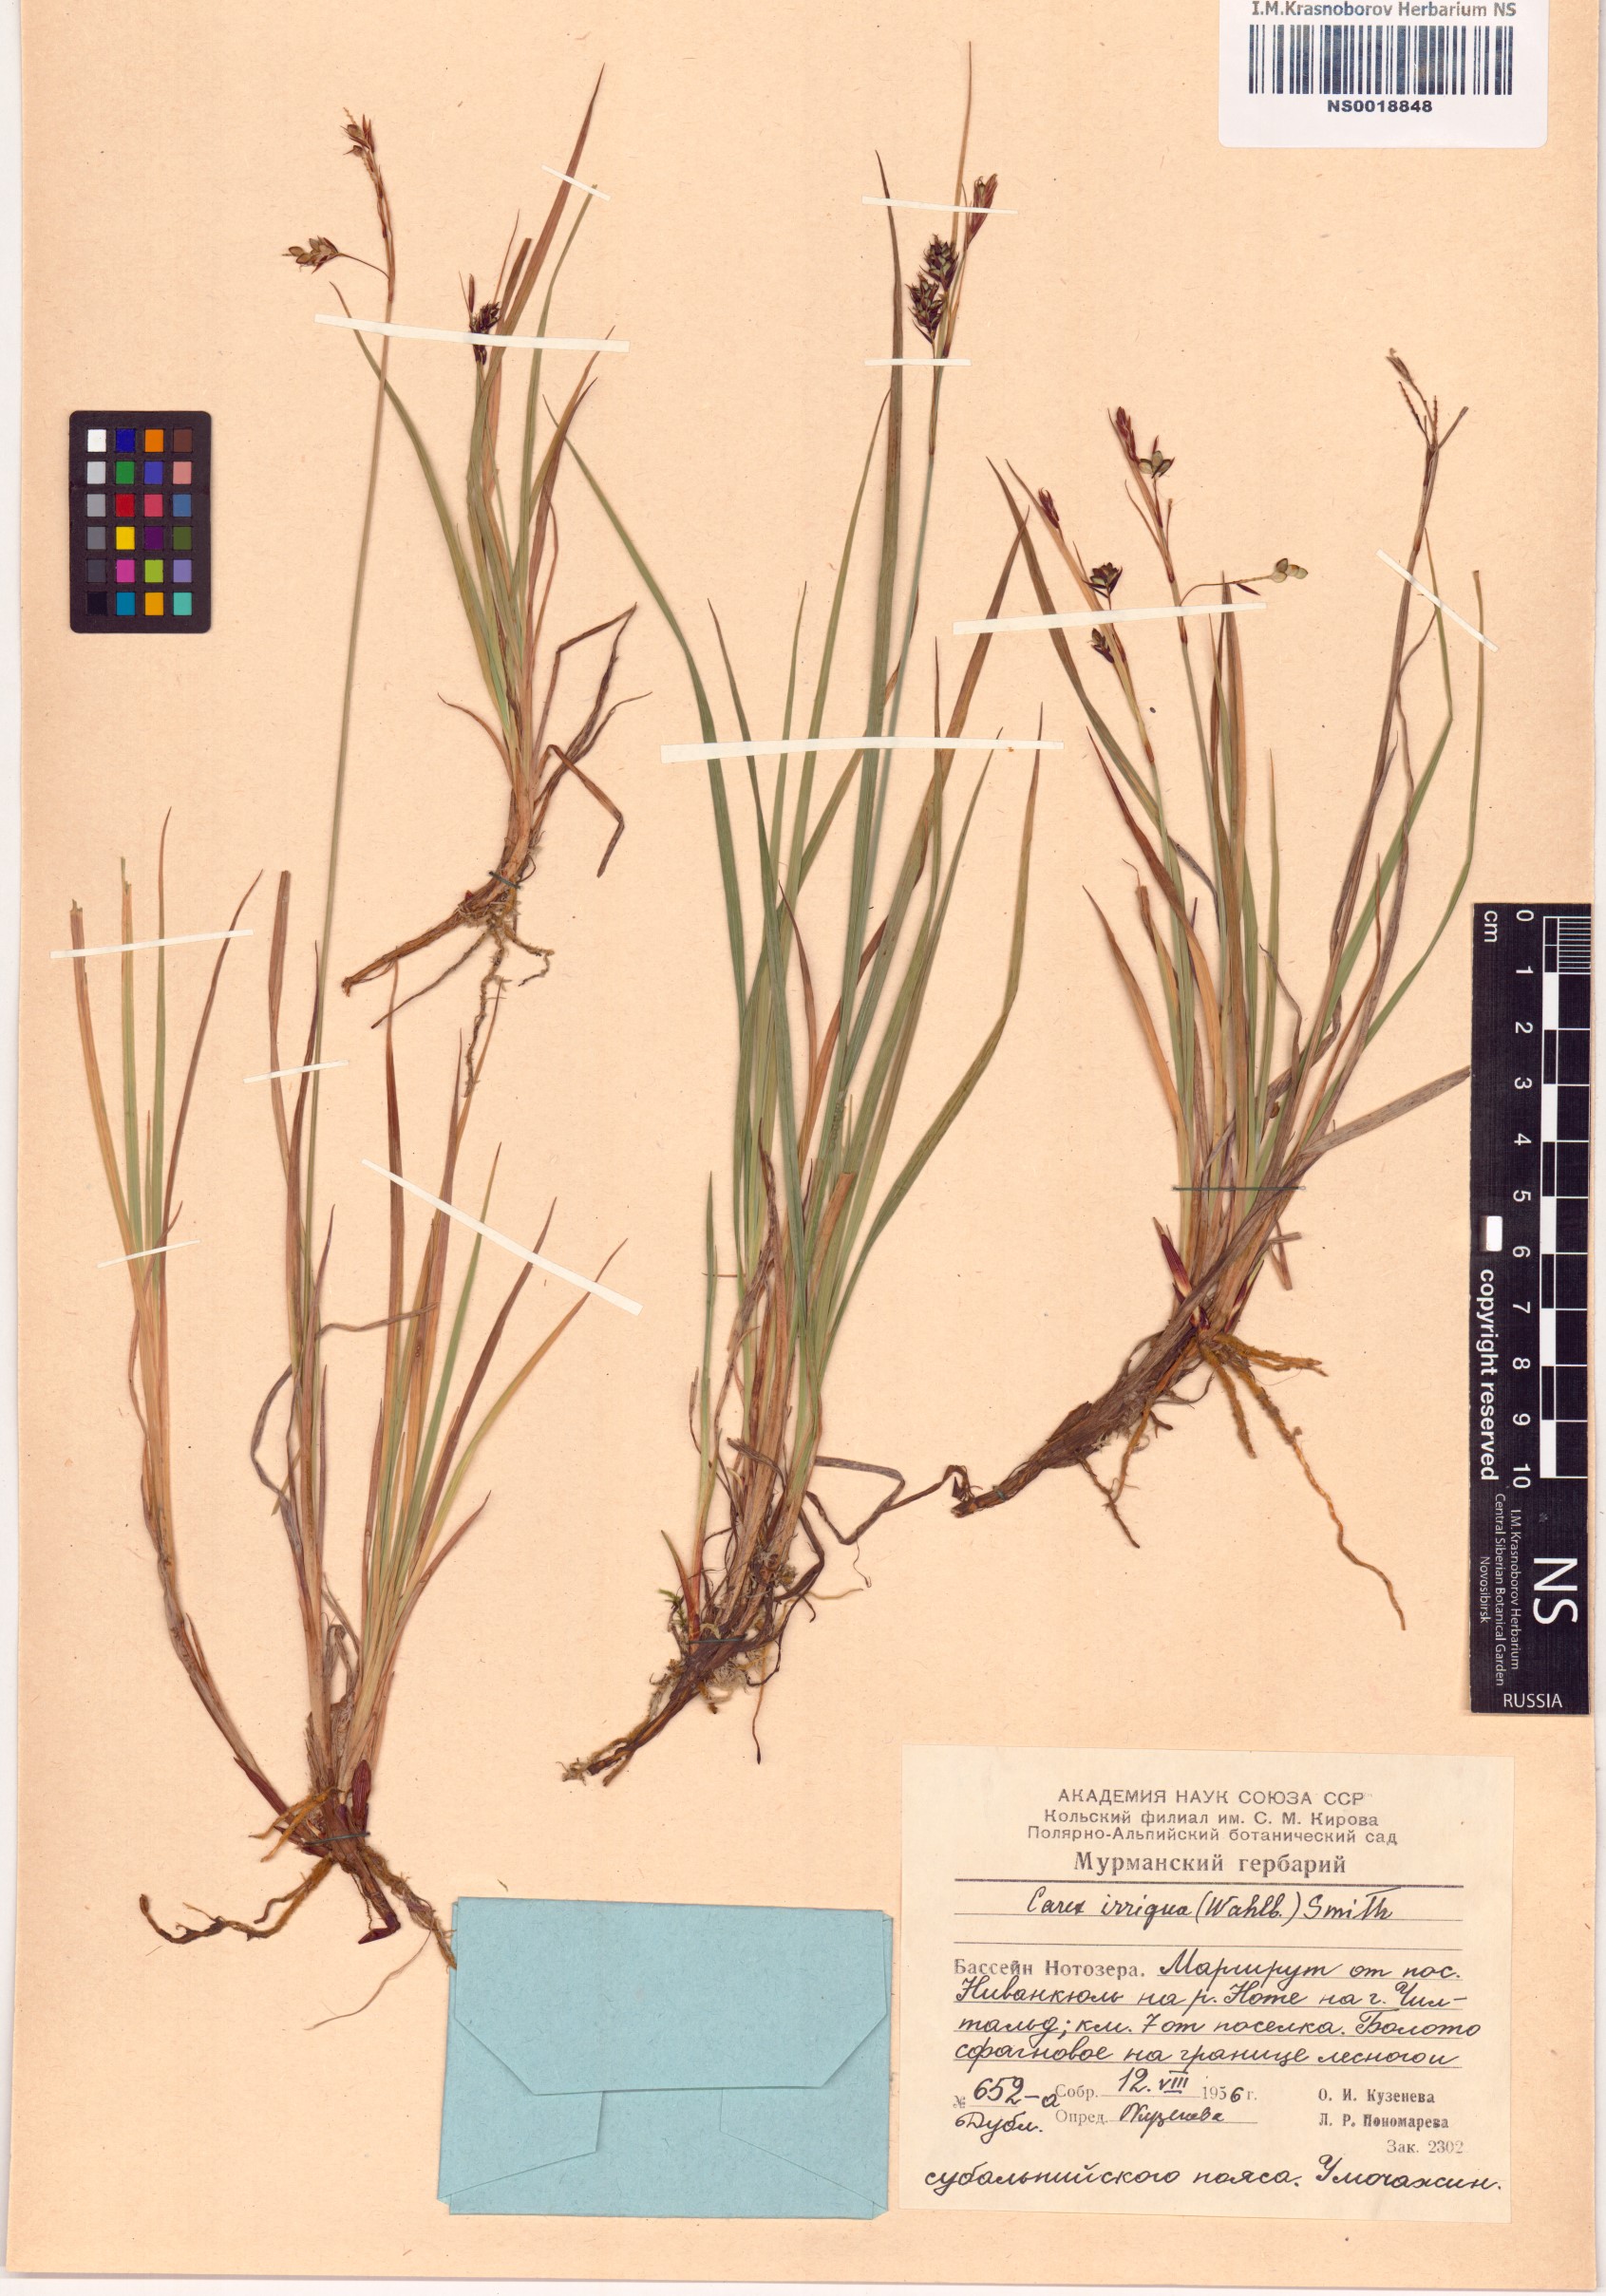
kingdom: Plantae
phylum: Tracheophyta
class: Liliopsida
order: Poales
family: Cyperaceae
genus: Carex
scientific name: Carex magellanica
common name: Bog sedge
